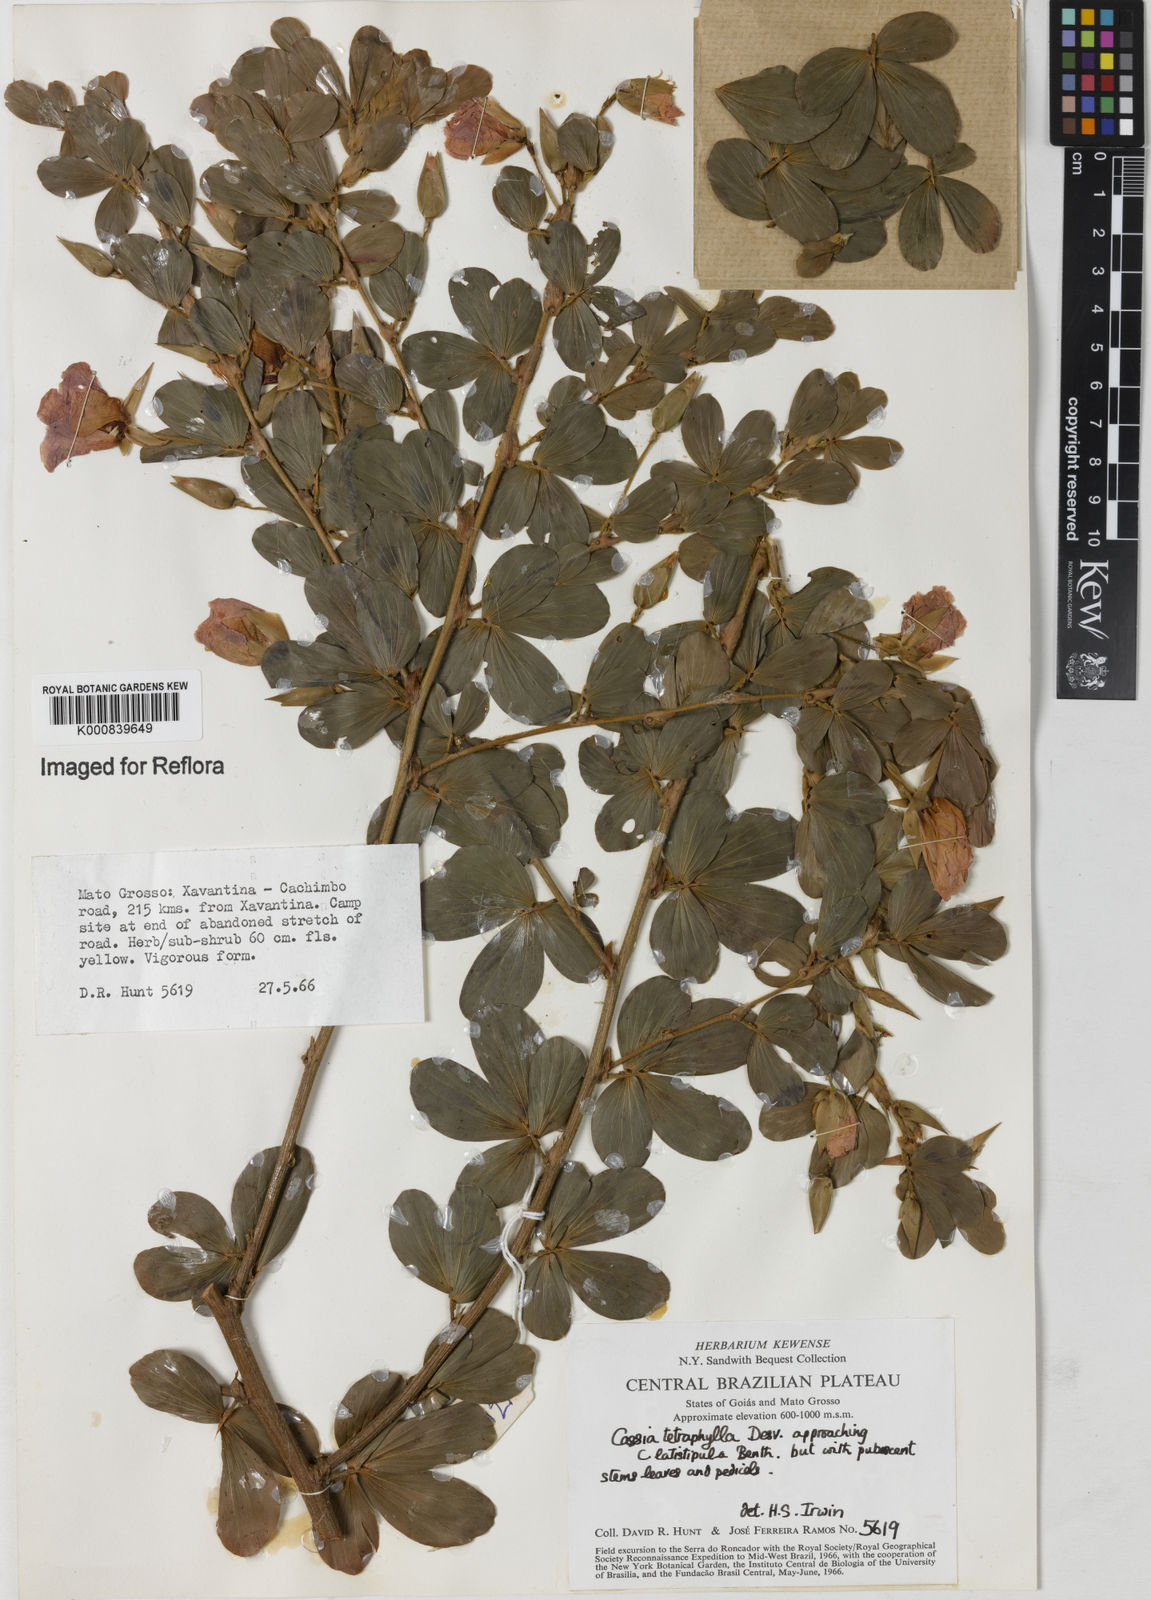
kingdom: Plantae
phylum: Tracheophyta
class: Magnoliopsida
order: Fabales
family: Fabaceae
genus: Chamaecrista
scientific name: Chamaecrista desvauxii
